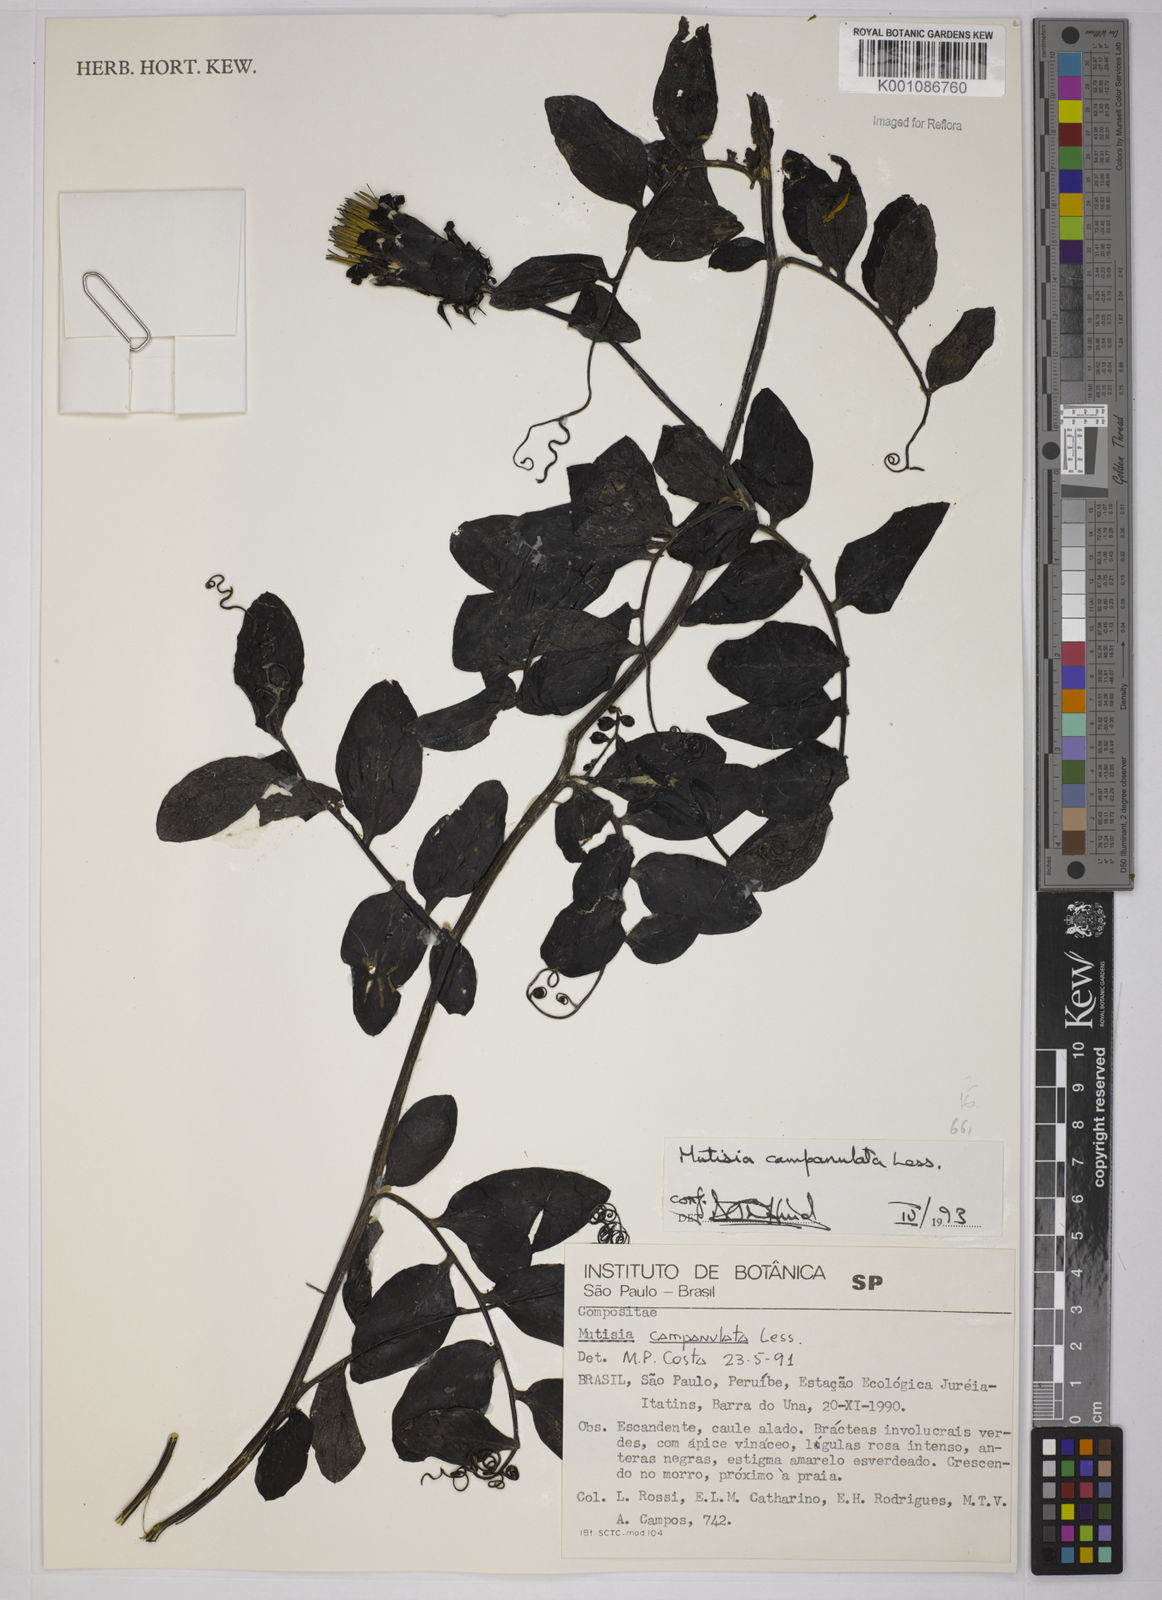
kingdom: Plantae
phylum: Tracheophyta
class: Magnoliopsida
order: Asterales
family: Asteraceae
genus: Mutisia
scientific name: Mutisia campanulata
